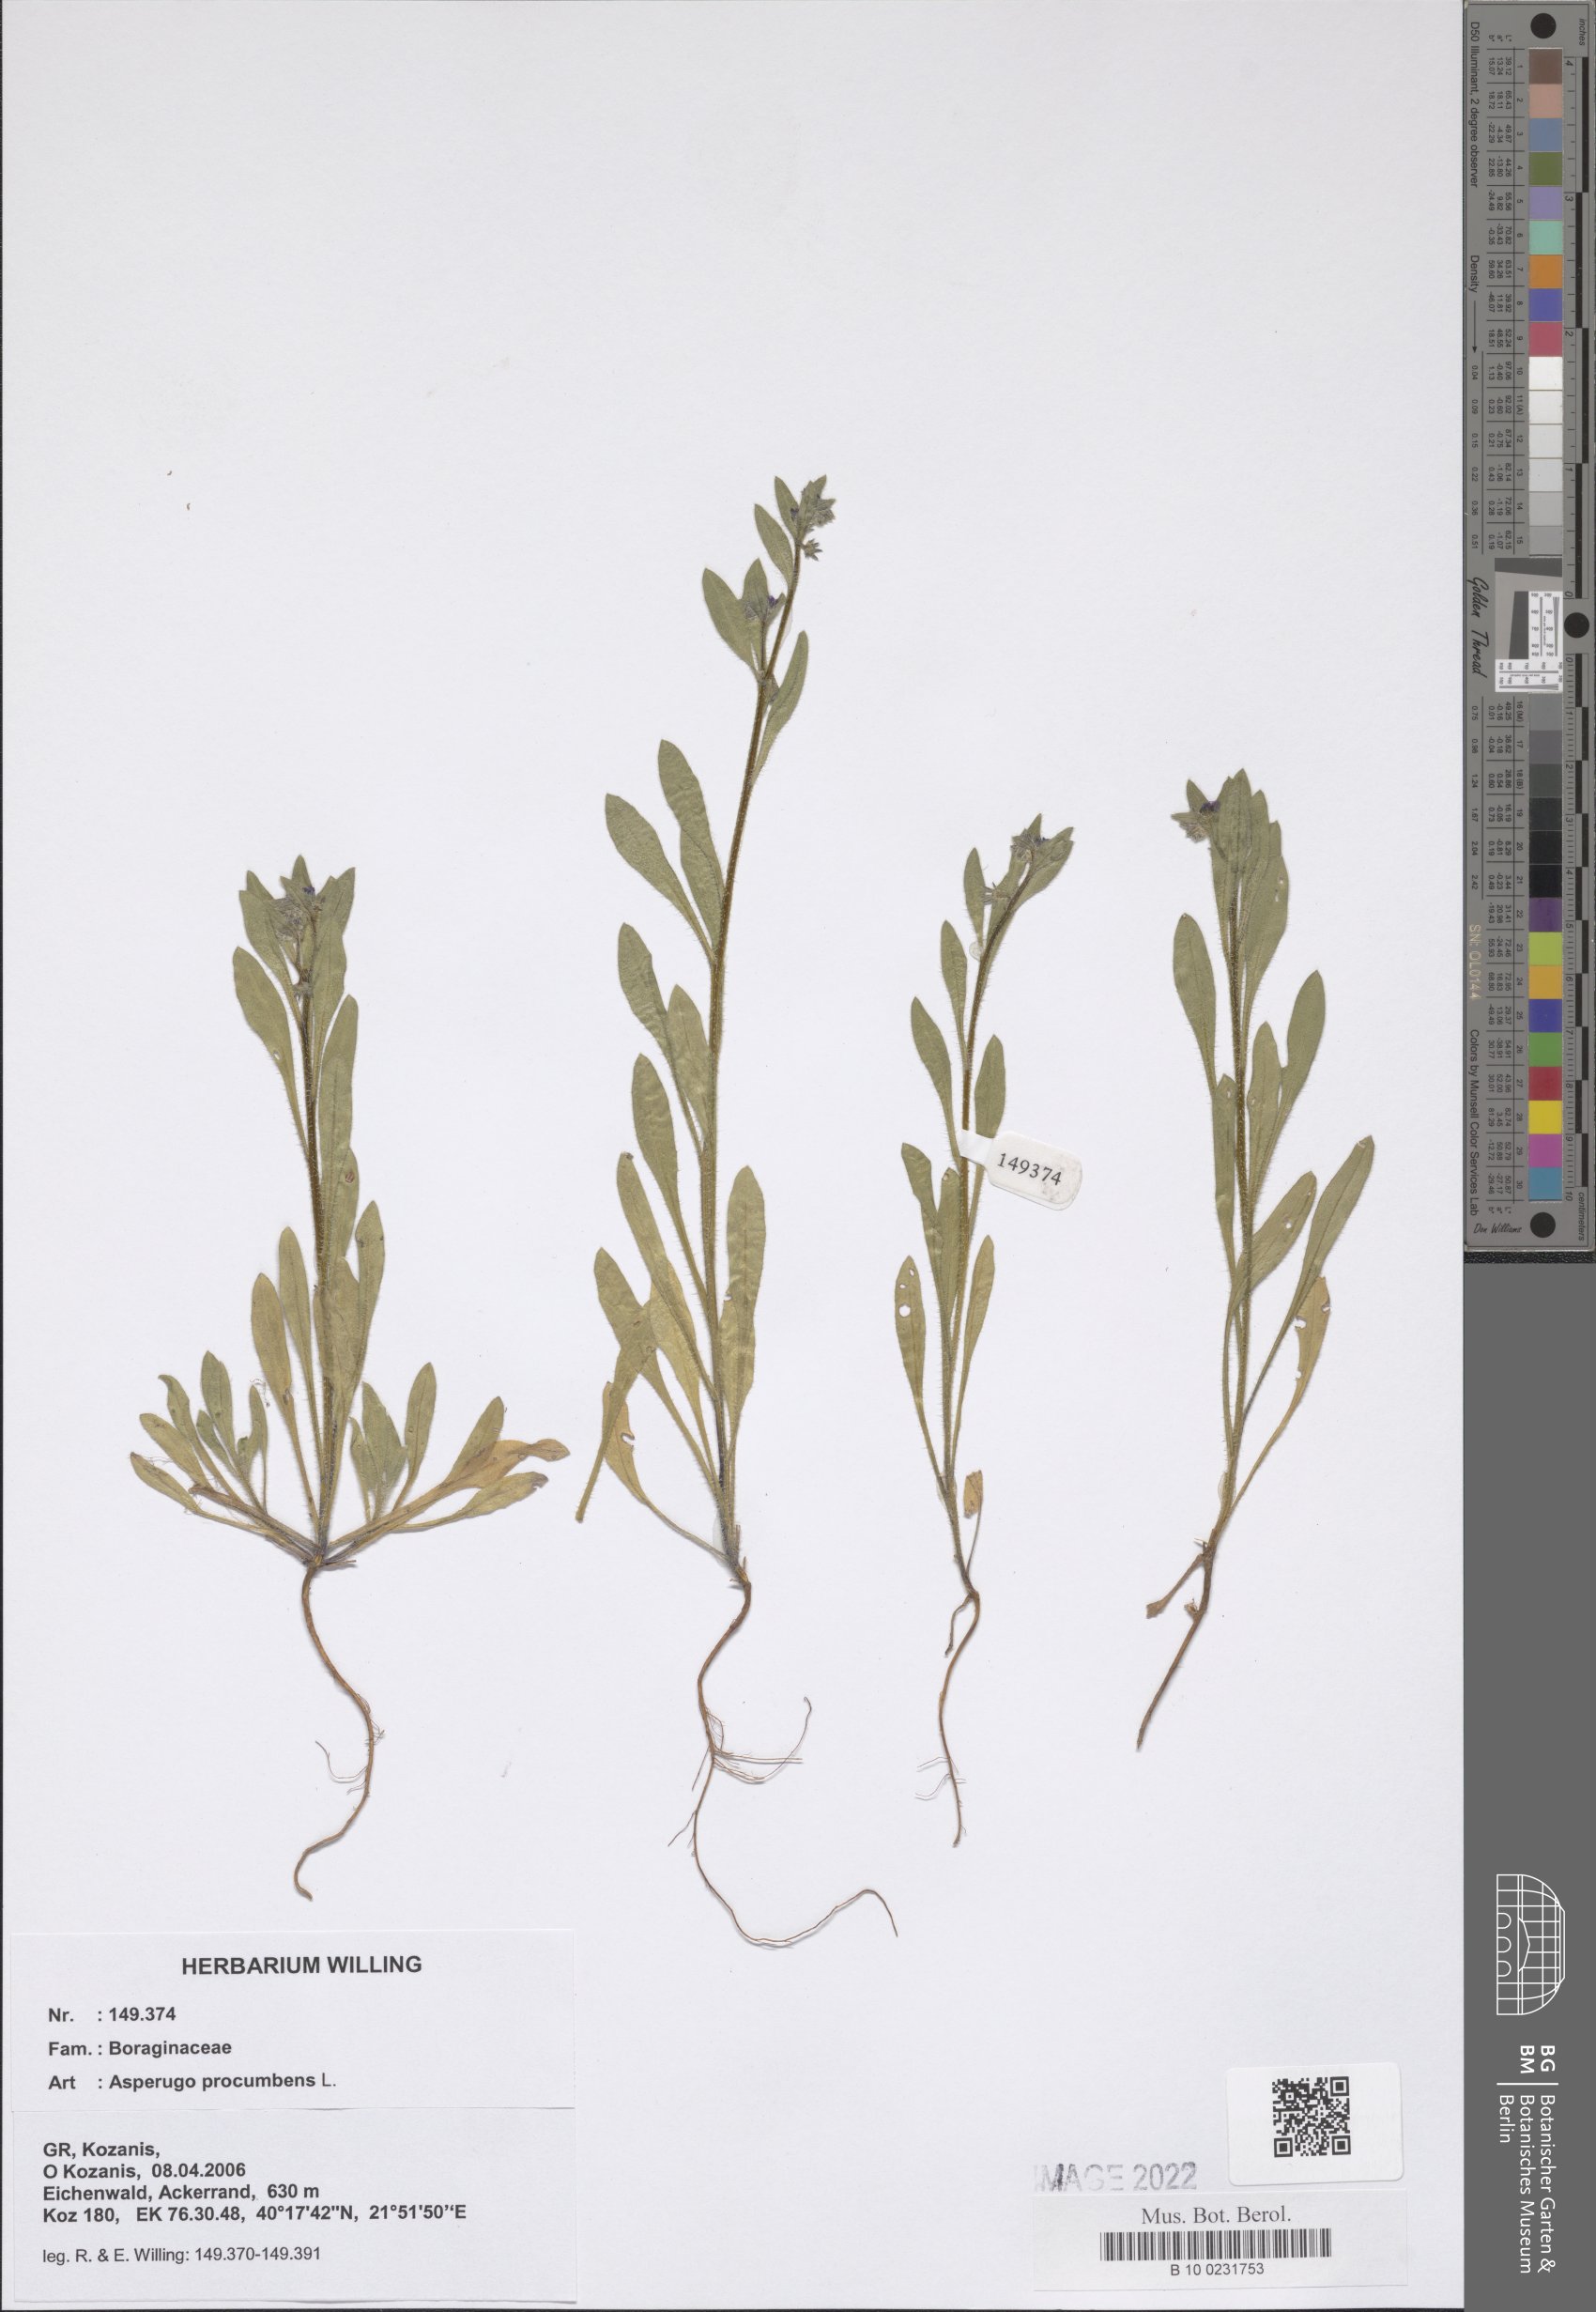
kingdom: Plantae
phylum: Tracheophyta
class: Magnoliopsida
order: Boraginales
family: Boraginaceae
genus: Asperugo
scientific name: Asperugo procumbens
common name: Madwort
